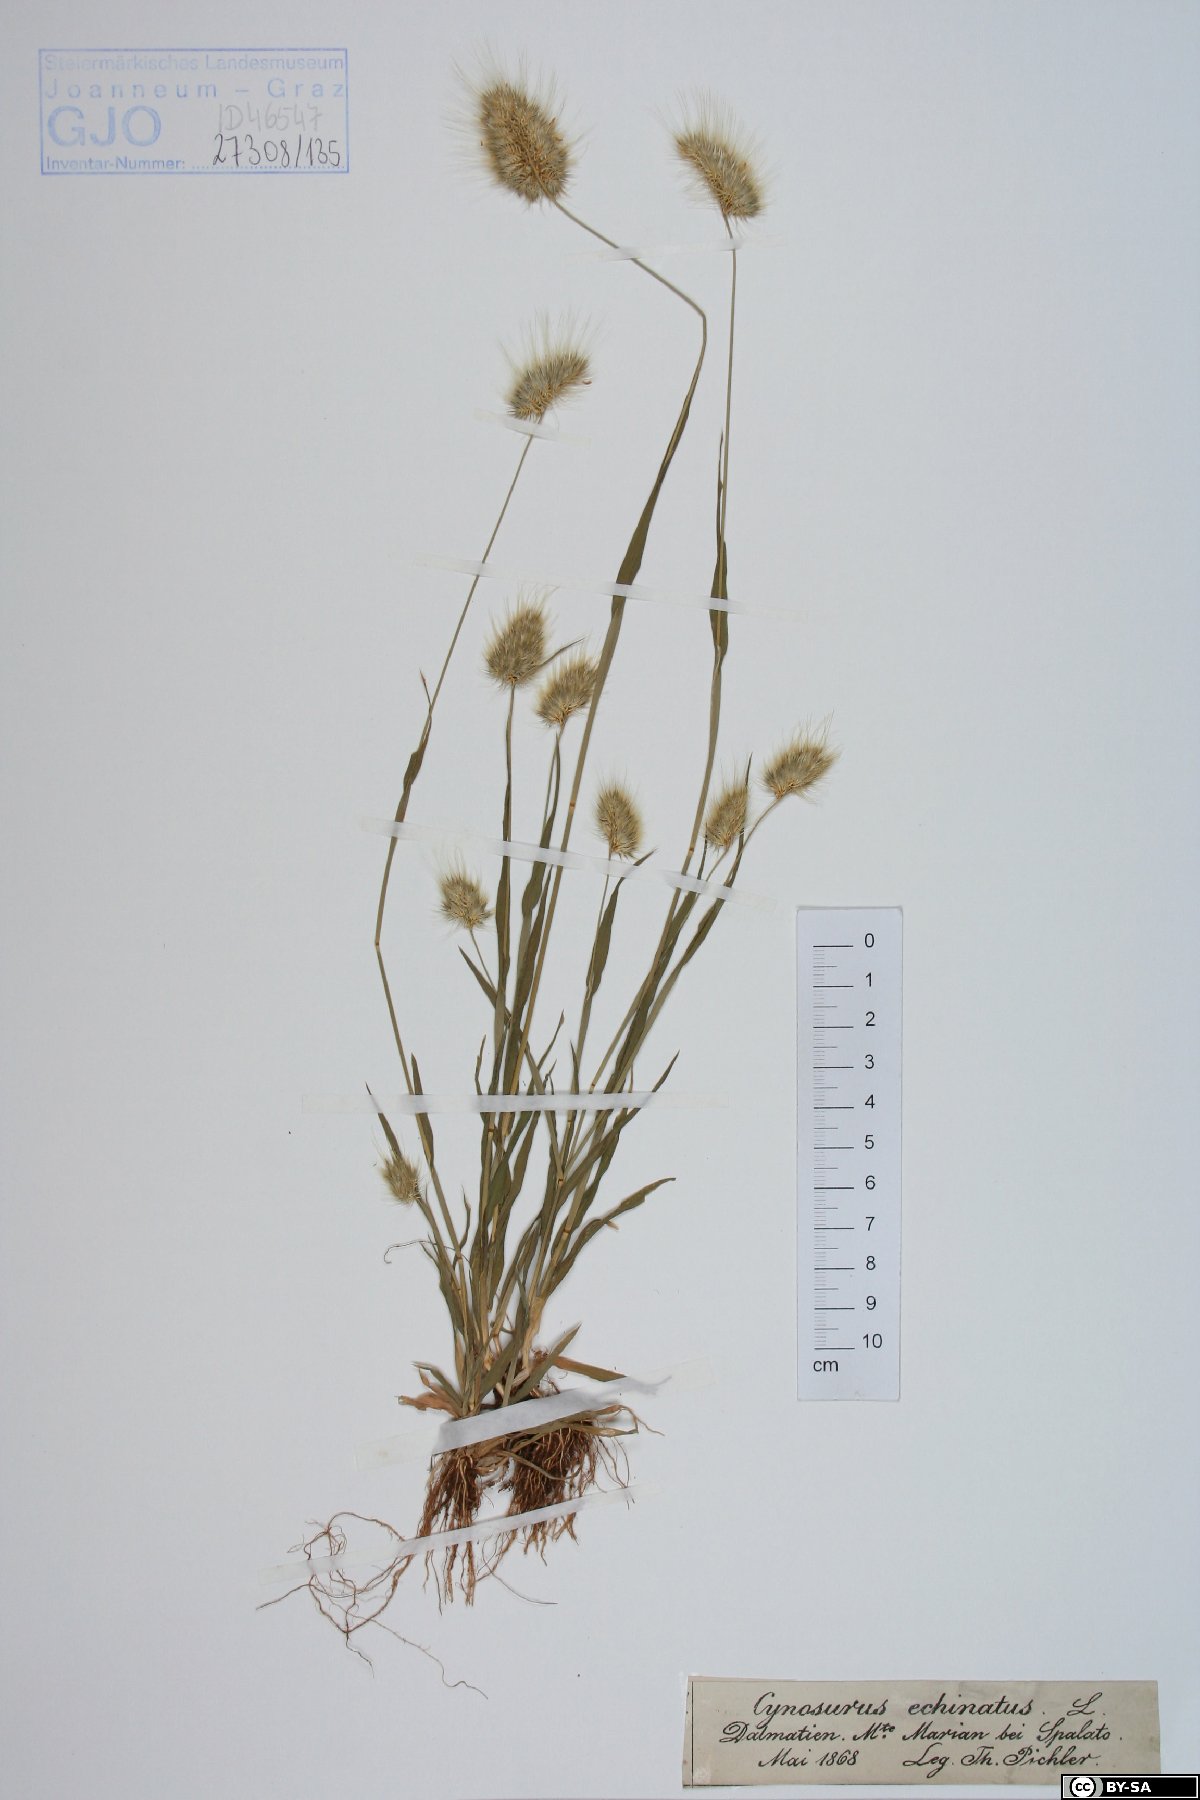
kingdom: Plantae
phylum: Tracheophyta
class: Liliopsida
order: Poales
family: Poaceae
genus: Cynosurus
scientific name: Cynosurus echinatus
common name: Rough dog's-tail
